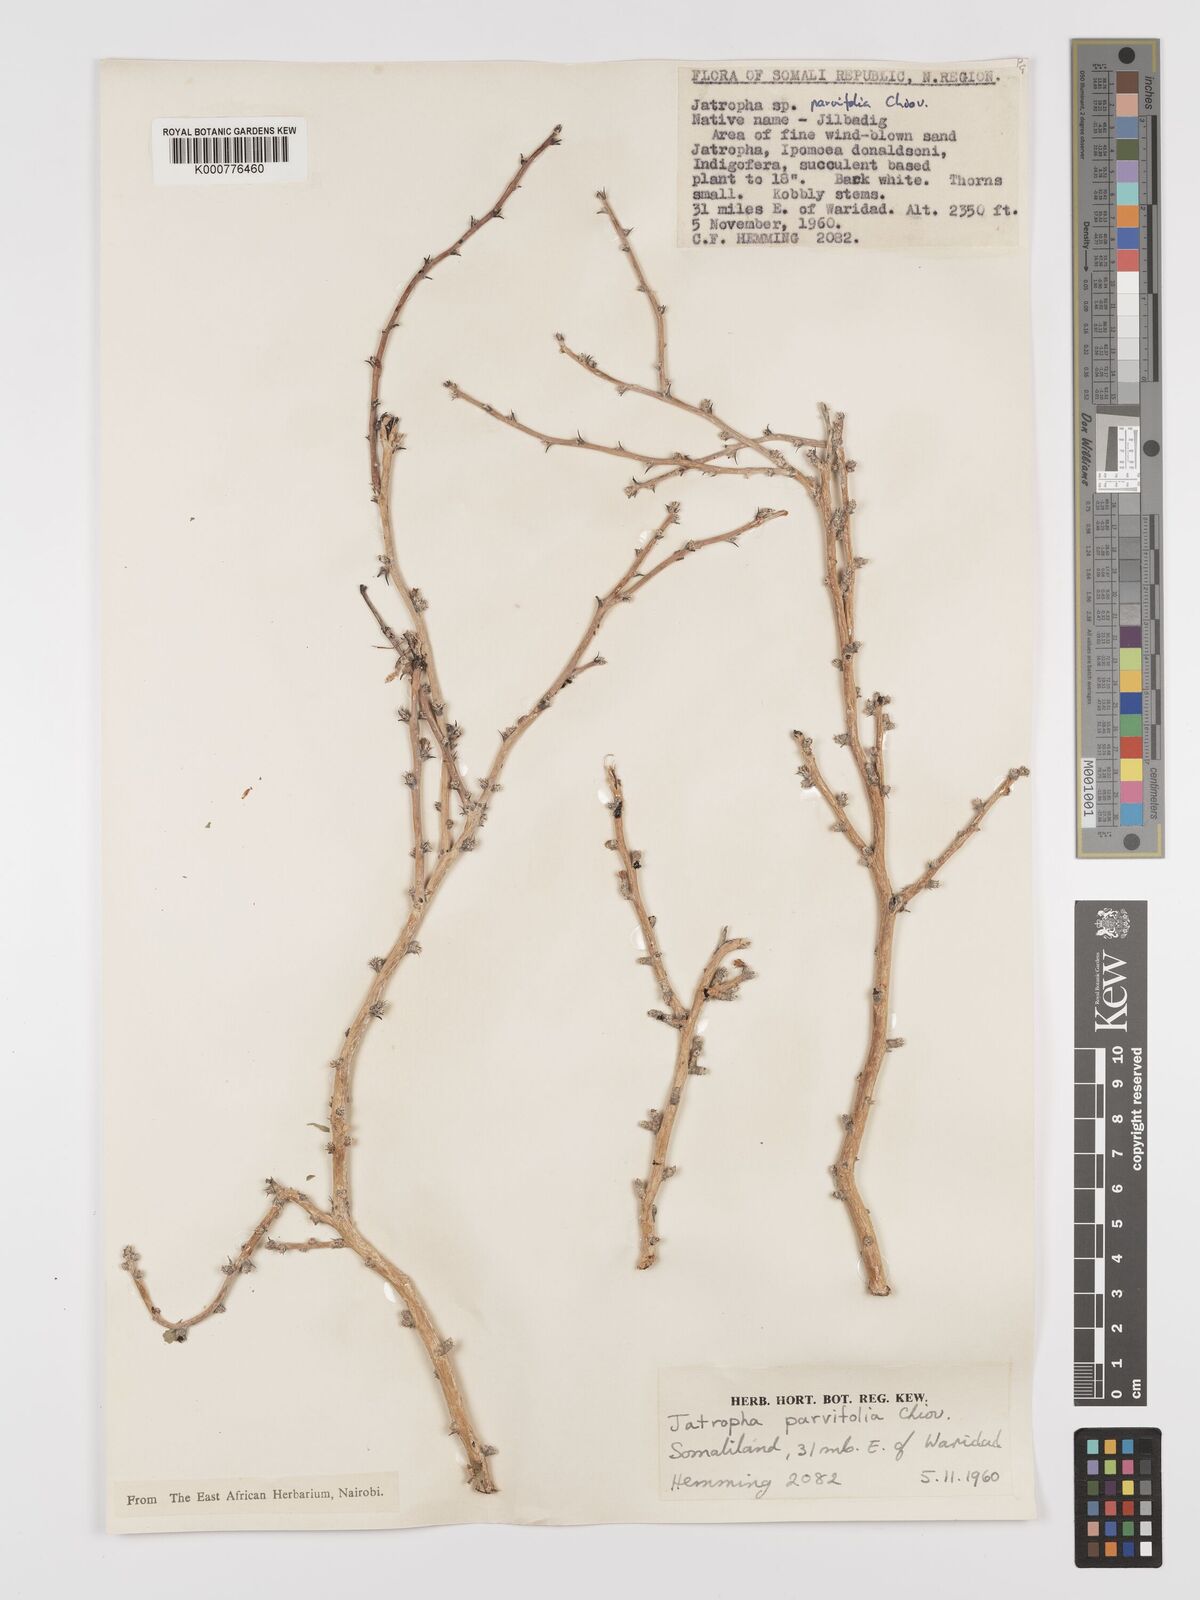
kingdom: Plantae
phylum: Tracheophyta
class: Magnoliopsida
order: Malpighiales
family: Euphorbiaceae
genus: Jatropha
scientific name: Jatropha rivae
